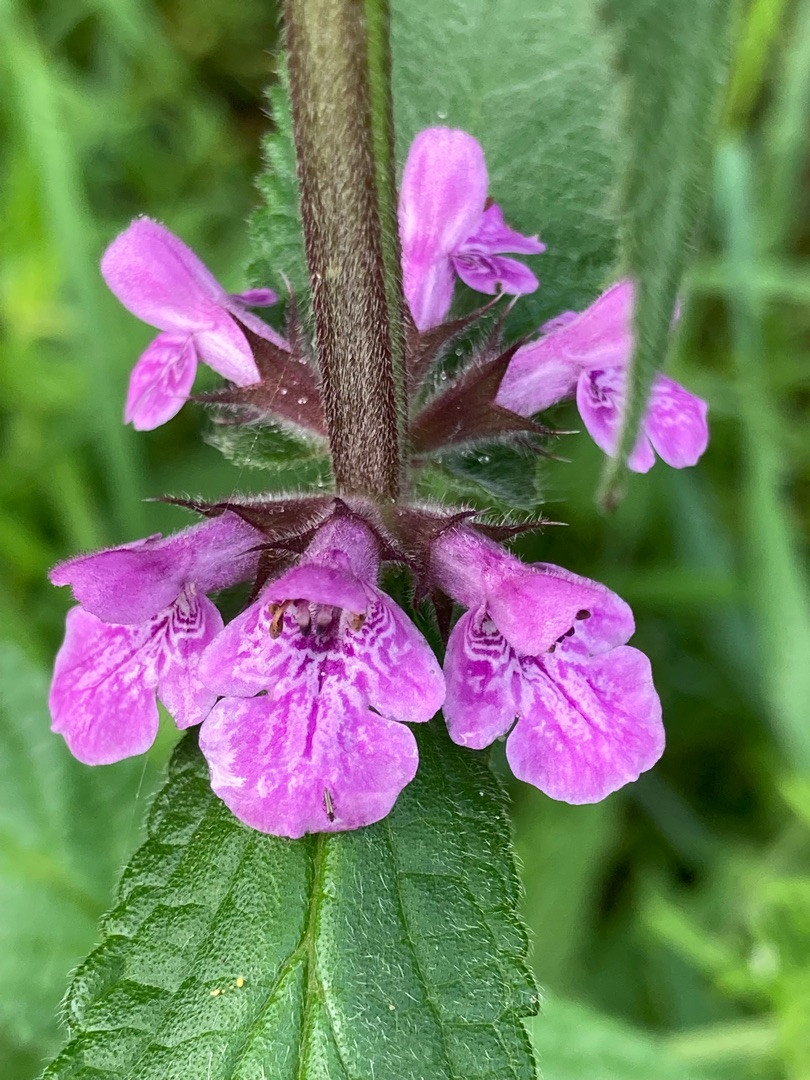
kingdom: Plantae
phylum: Tracheophyta
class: Magnoliopsida
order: Lamiales
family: Lamiaceae
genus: Stachys
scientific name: Stachys palustris
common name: Kær-galtetand
